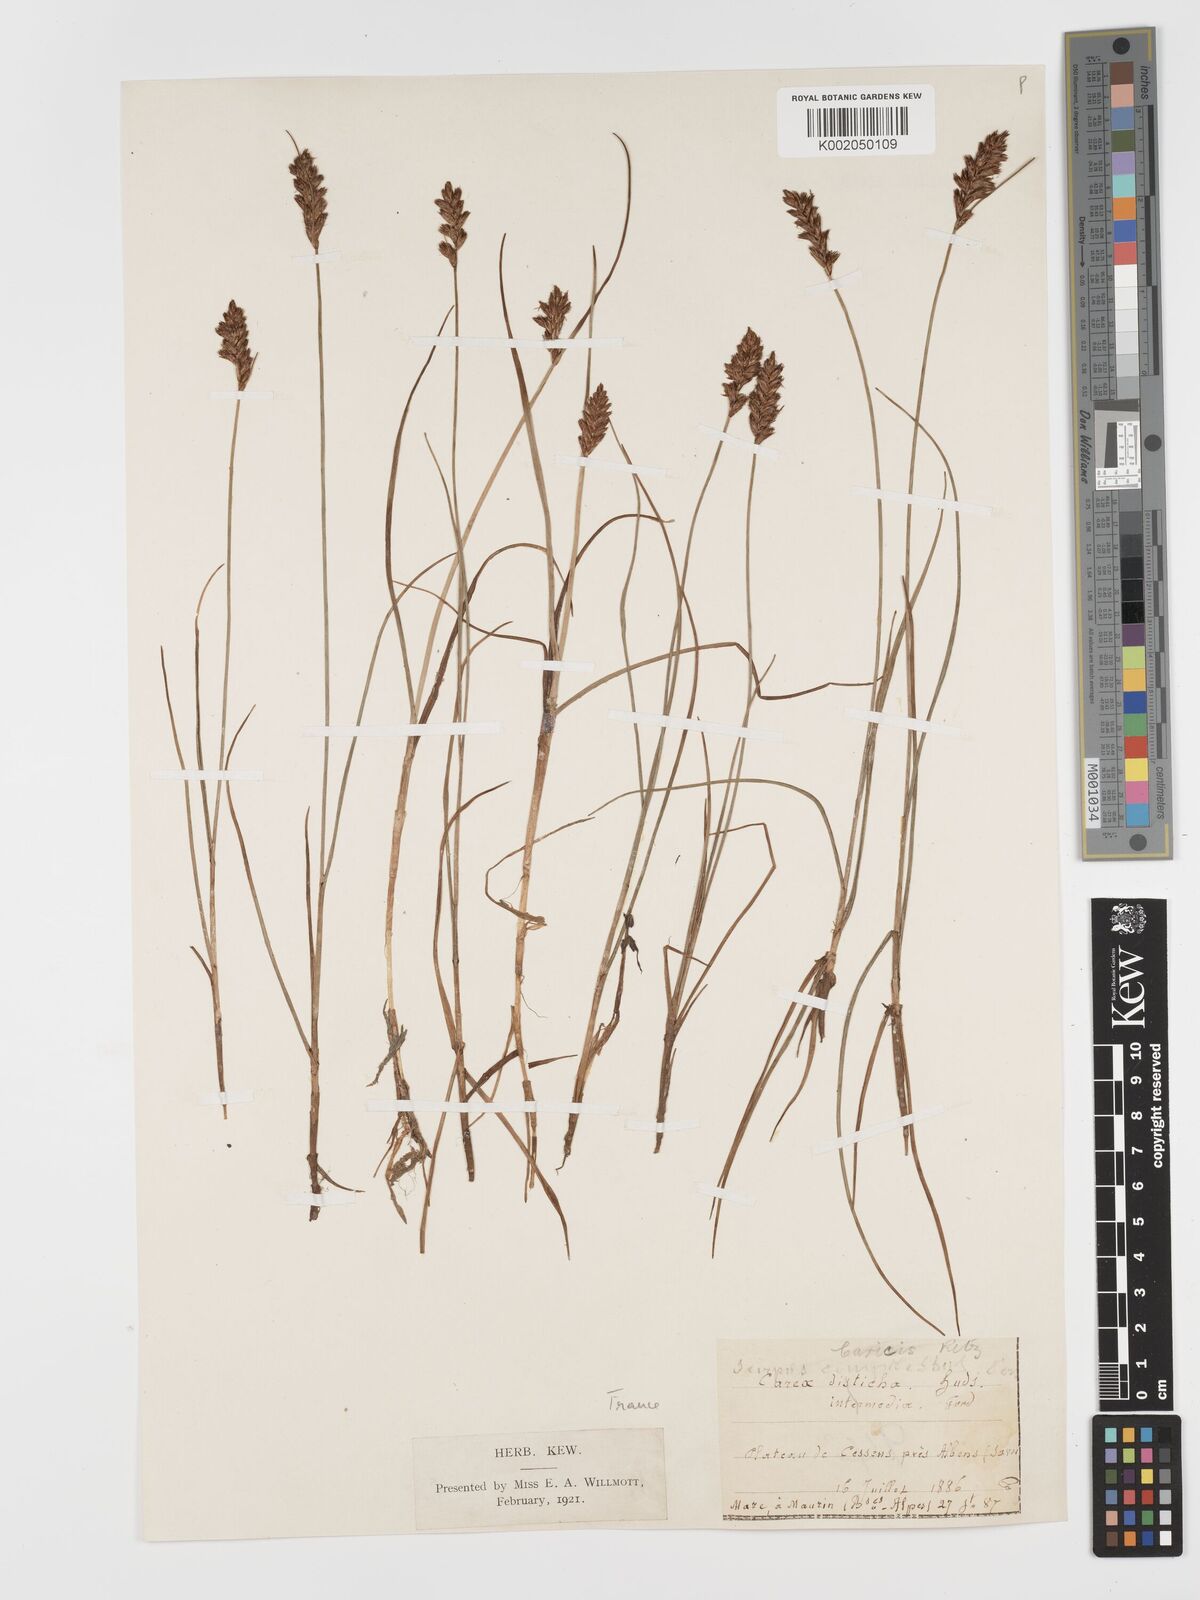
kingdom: Plantae
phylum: Tracheophyta
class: Liliopsida
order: Poales
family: Cyperaceae
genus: Blysmus
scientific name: Blysmus compressus
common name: Flat-sedge
